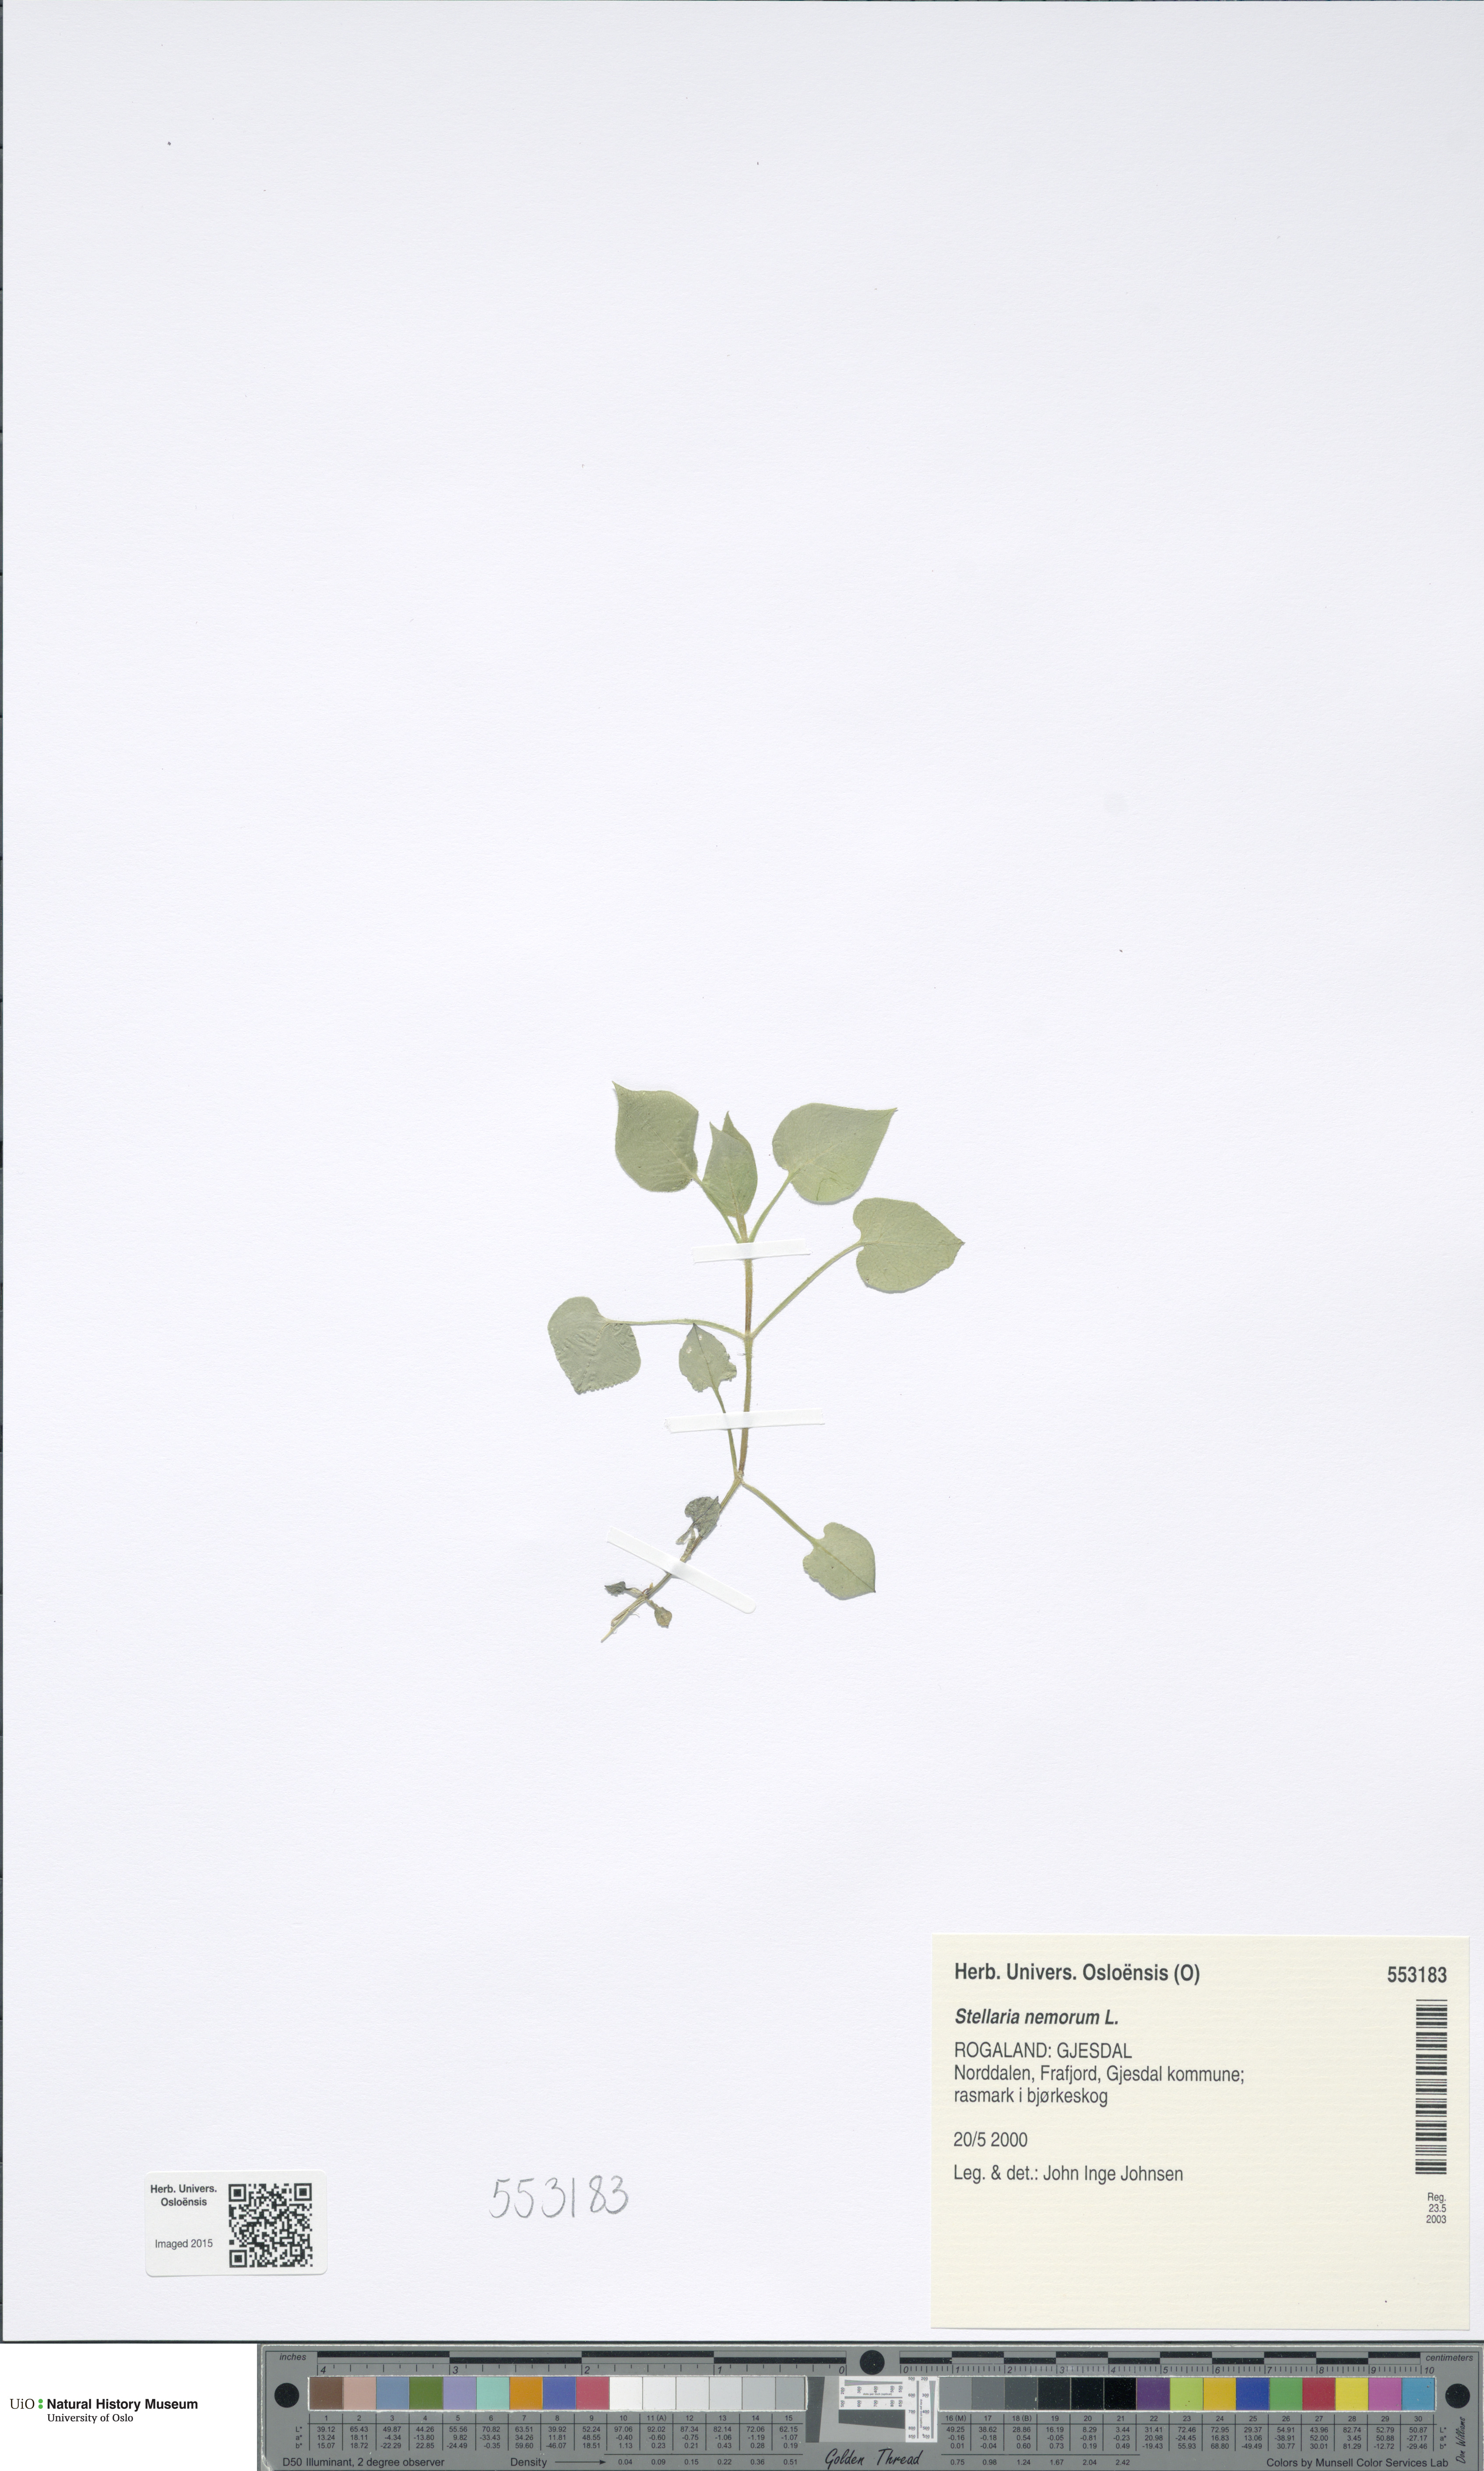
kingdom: Plantae
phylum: Tracheophyta
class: Magnoliopsida
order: Caryophyllales
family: Caryophyllaceae
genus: Stellaria
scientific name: Stellaria nemorum
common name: Wood stitchwort
